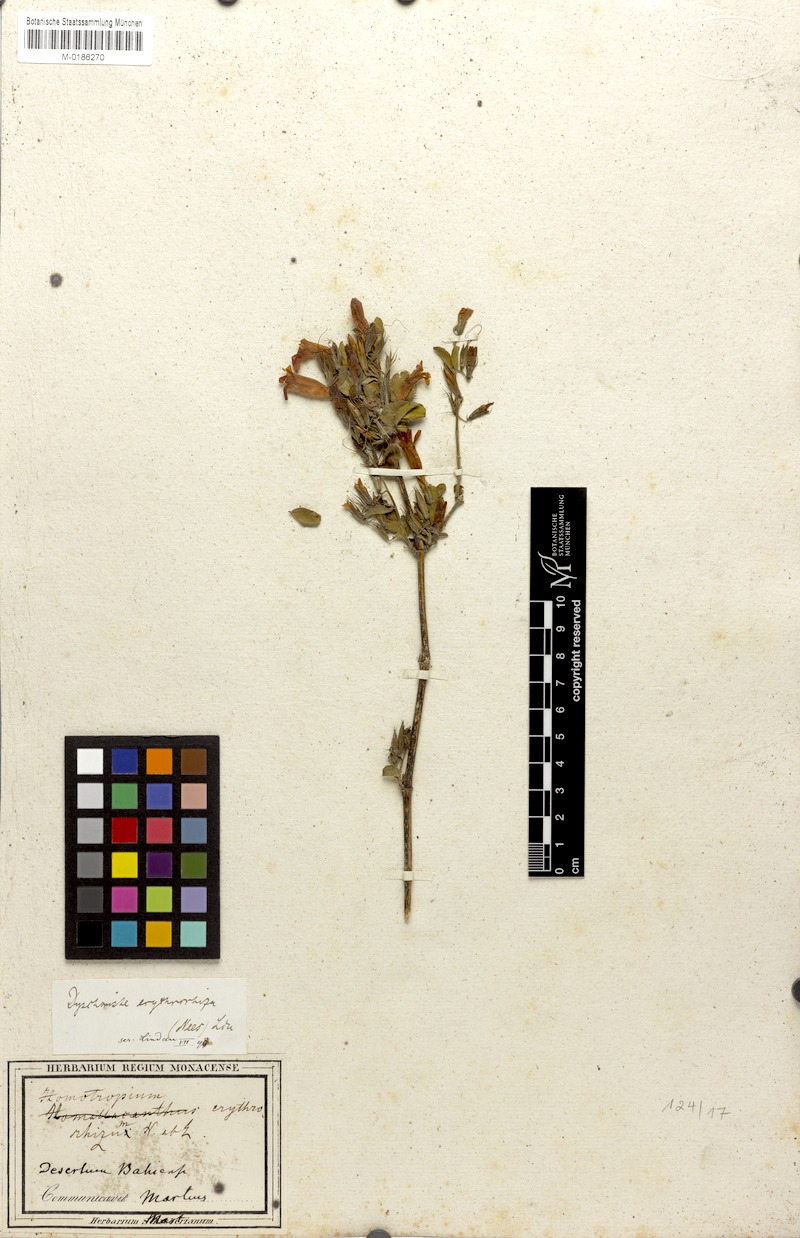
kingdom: Plantae
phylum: Tracheophyta
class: Magnoliopsida
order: Lamiales
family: Acanthaceae
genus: Dyschoriste
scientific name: Dyschoriste erythrorhiza
